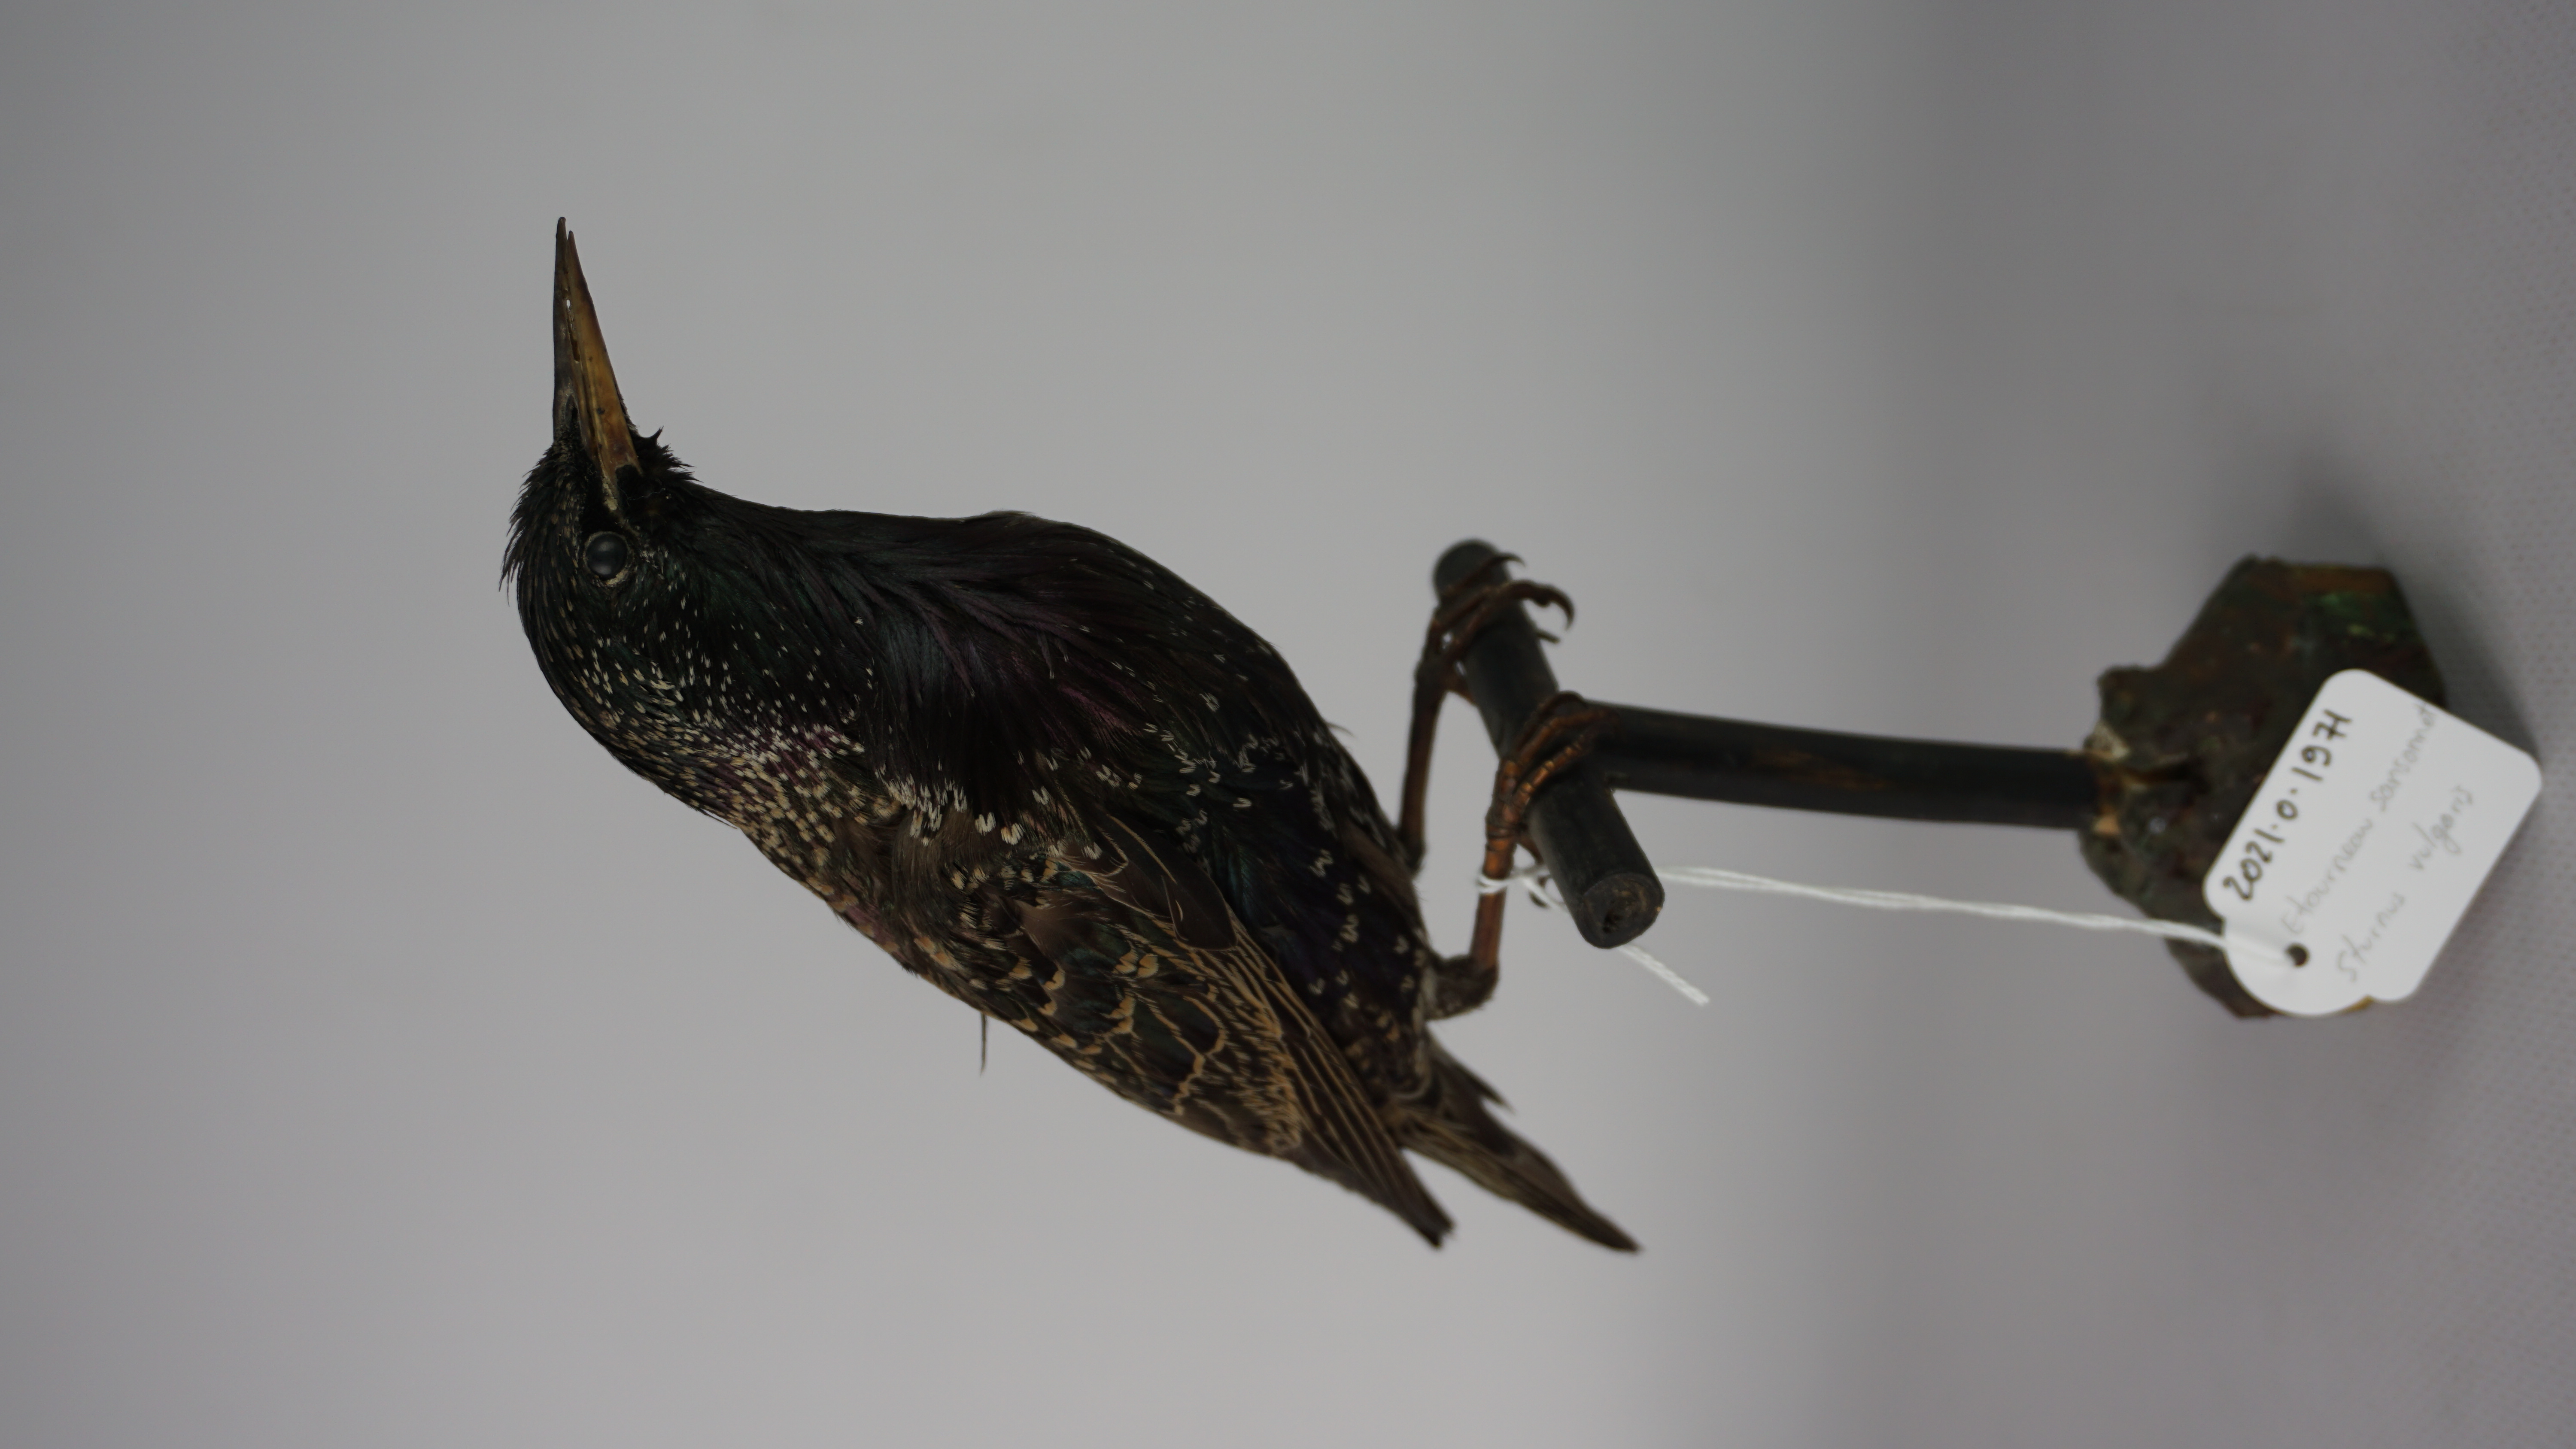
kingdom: Animalia
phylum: Chordata
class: Aves
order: Passeriformes
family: Sturnidae
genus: Sturnus
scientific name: Sturnus vulgaris
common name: Common starling
